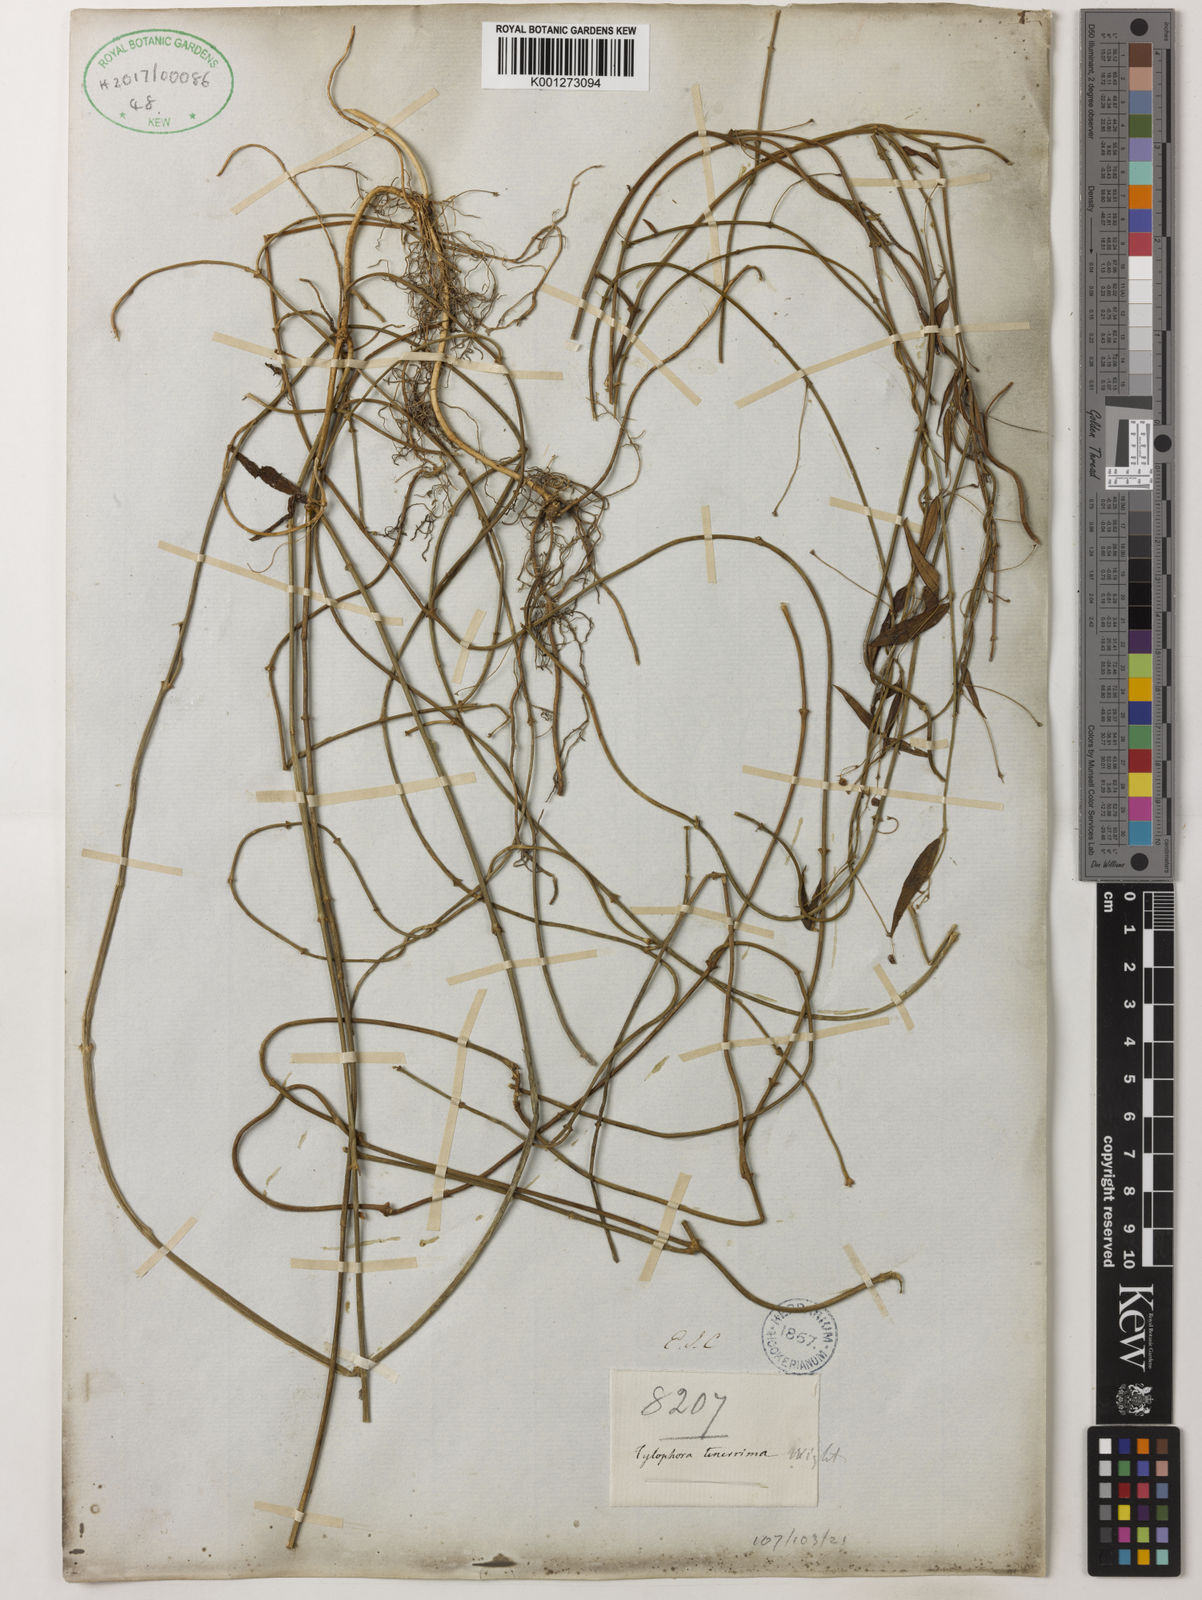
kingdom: Plantae
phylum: Tracheophyta
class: Magnoliopsida
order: Gentianales
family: Apocynaceae
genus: Vincetoxicum
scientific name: Vincetoxicum tenerrimum
